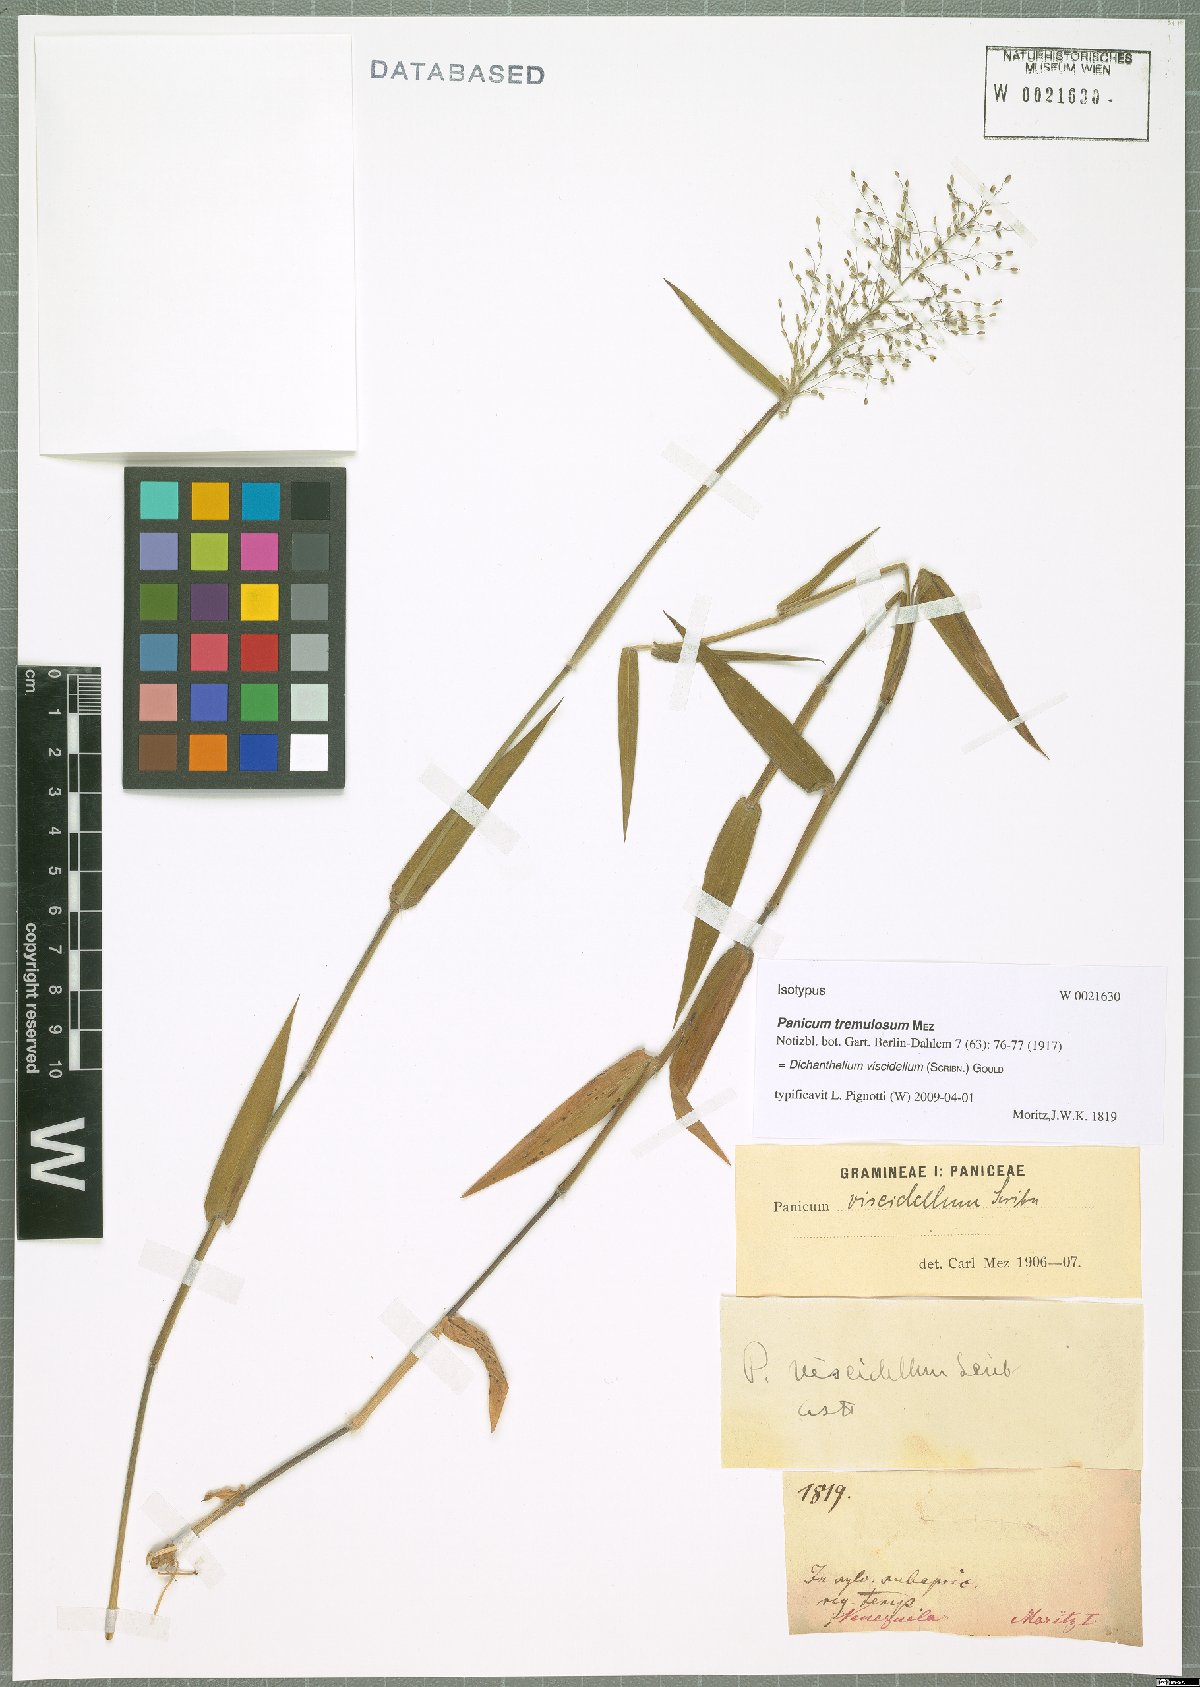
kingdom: Plantae
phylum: Tracheophyta
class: Liliopsida
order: Poales
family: Poaceae
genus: Dichanthelium
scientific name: Dichanthelium viscidellum
